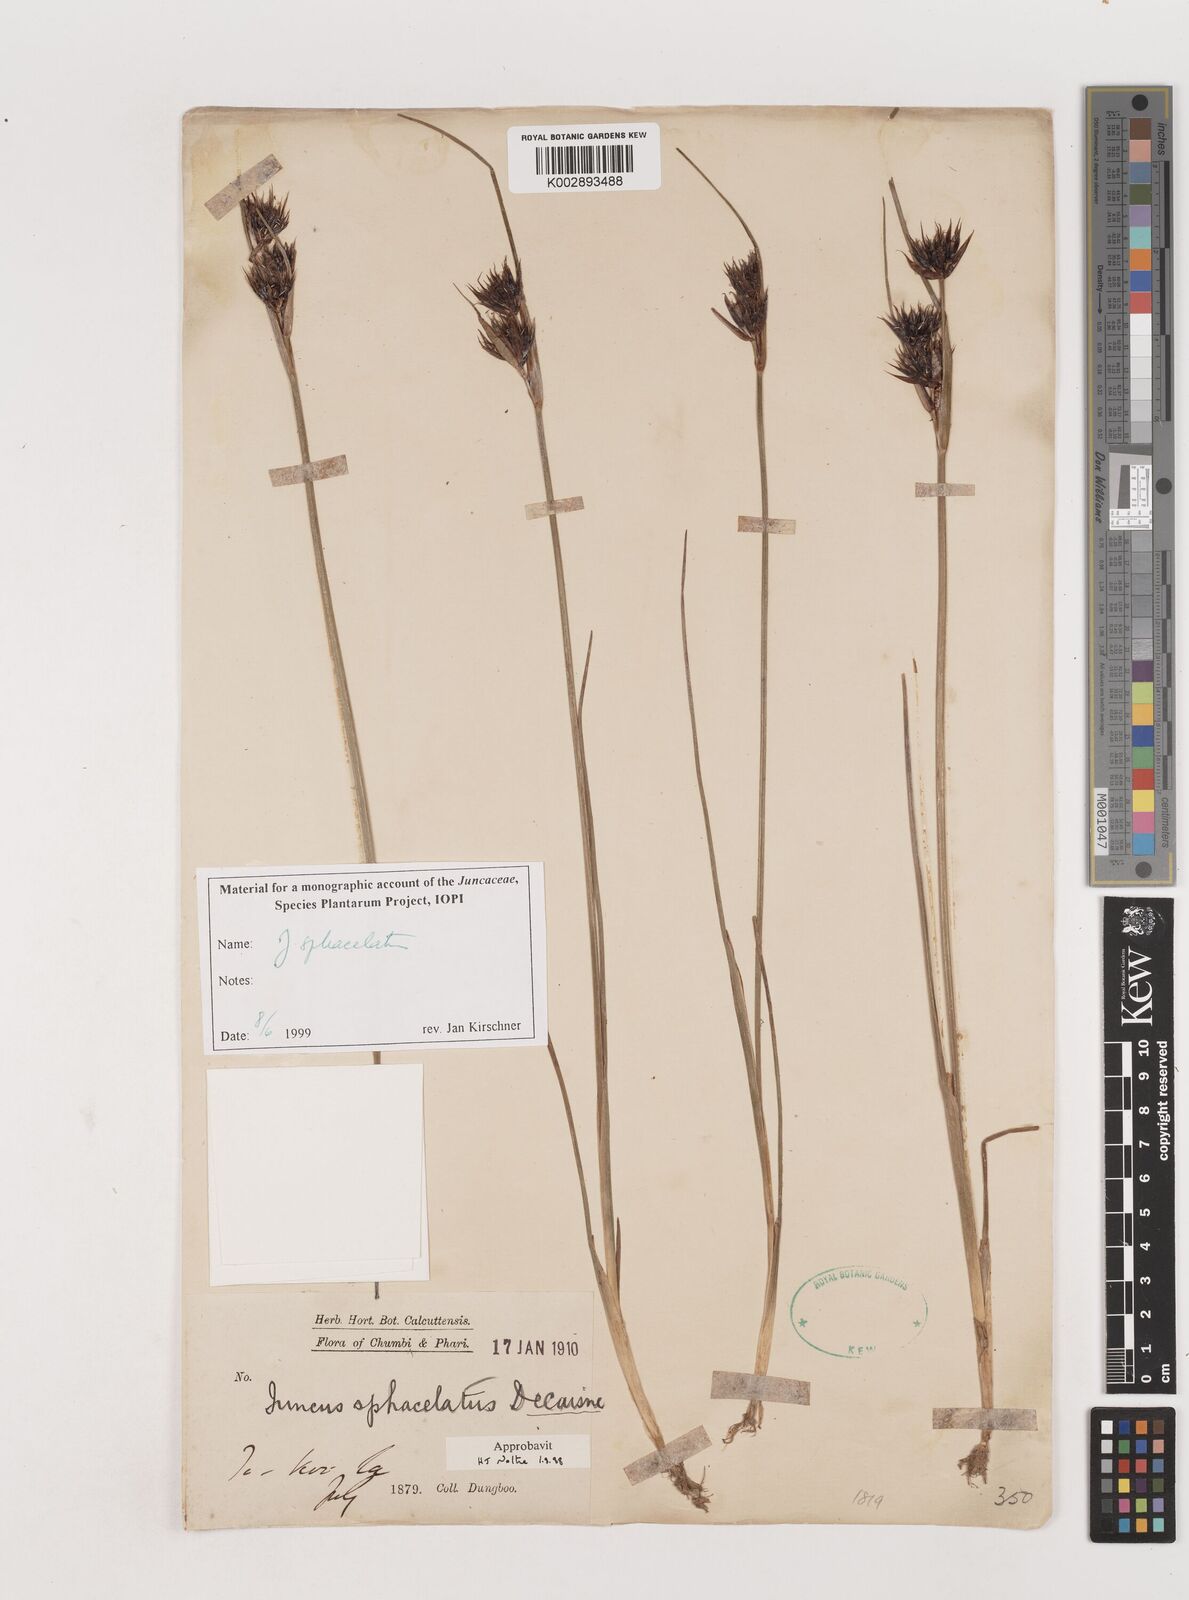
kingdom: Plantae
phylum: Tracheophyta
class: Liliopsida
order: Poales
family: Juncaceae
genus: Juncus
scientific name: Juncus sphacelatus
